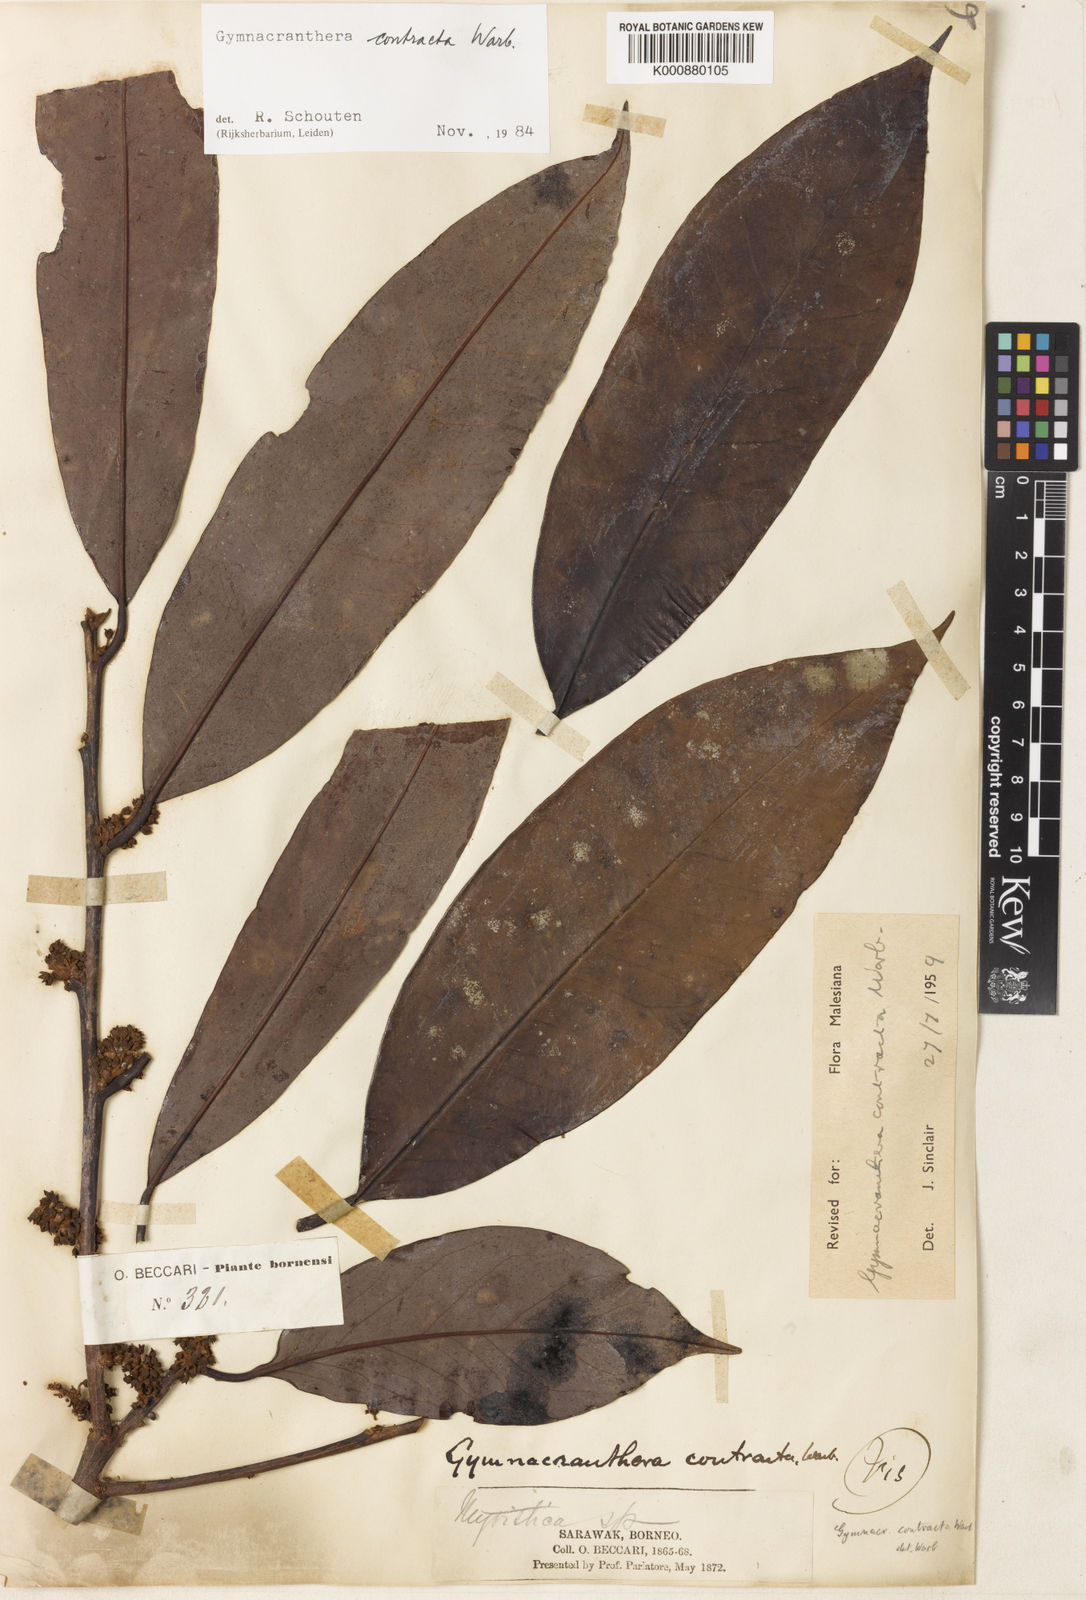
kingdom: Plantae
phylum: Tracheophyta
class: Magnoliopsida
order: Magnoliales
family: Myristicaceae
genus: Gymnacranthera
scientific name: Gymnacranthera contracta
